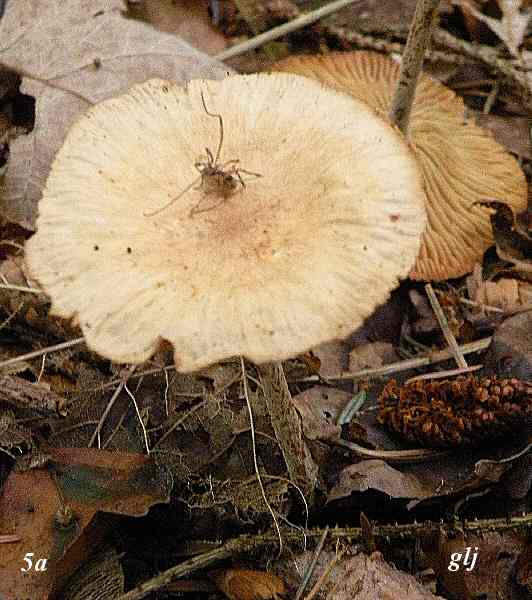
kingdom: Fungi
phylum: Basidiomycota
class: Agaricomycetes
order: Agaricales
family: Omphalotaceae
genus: Collybiopsis
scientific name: Collybiopsis peronata
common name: bestøvlet fladhat
